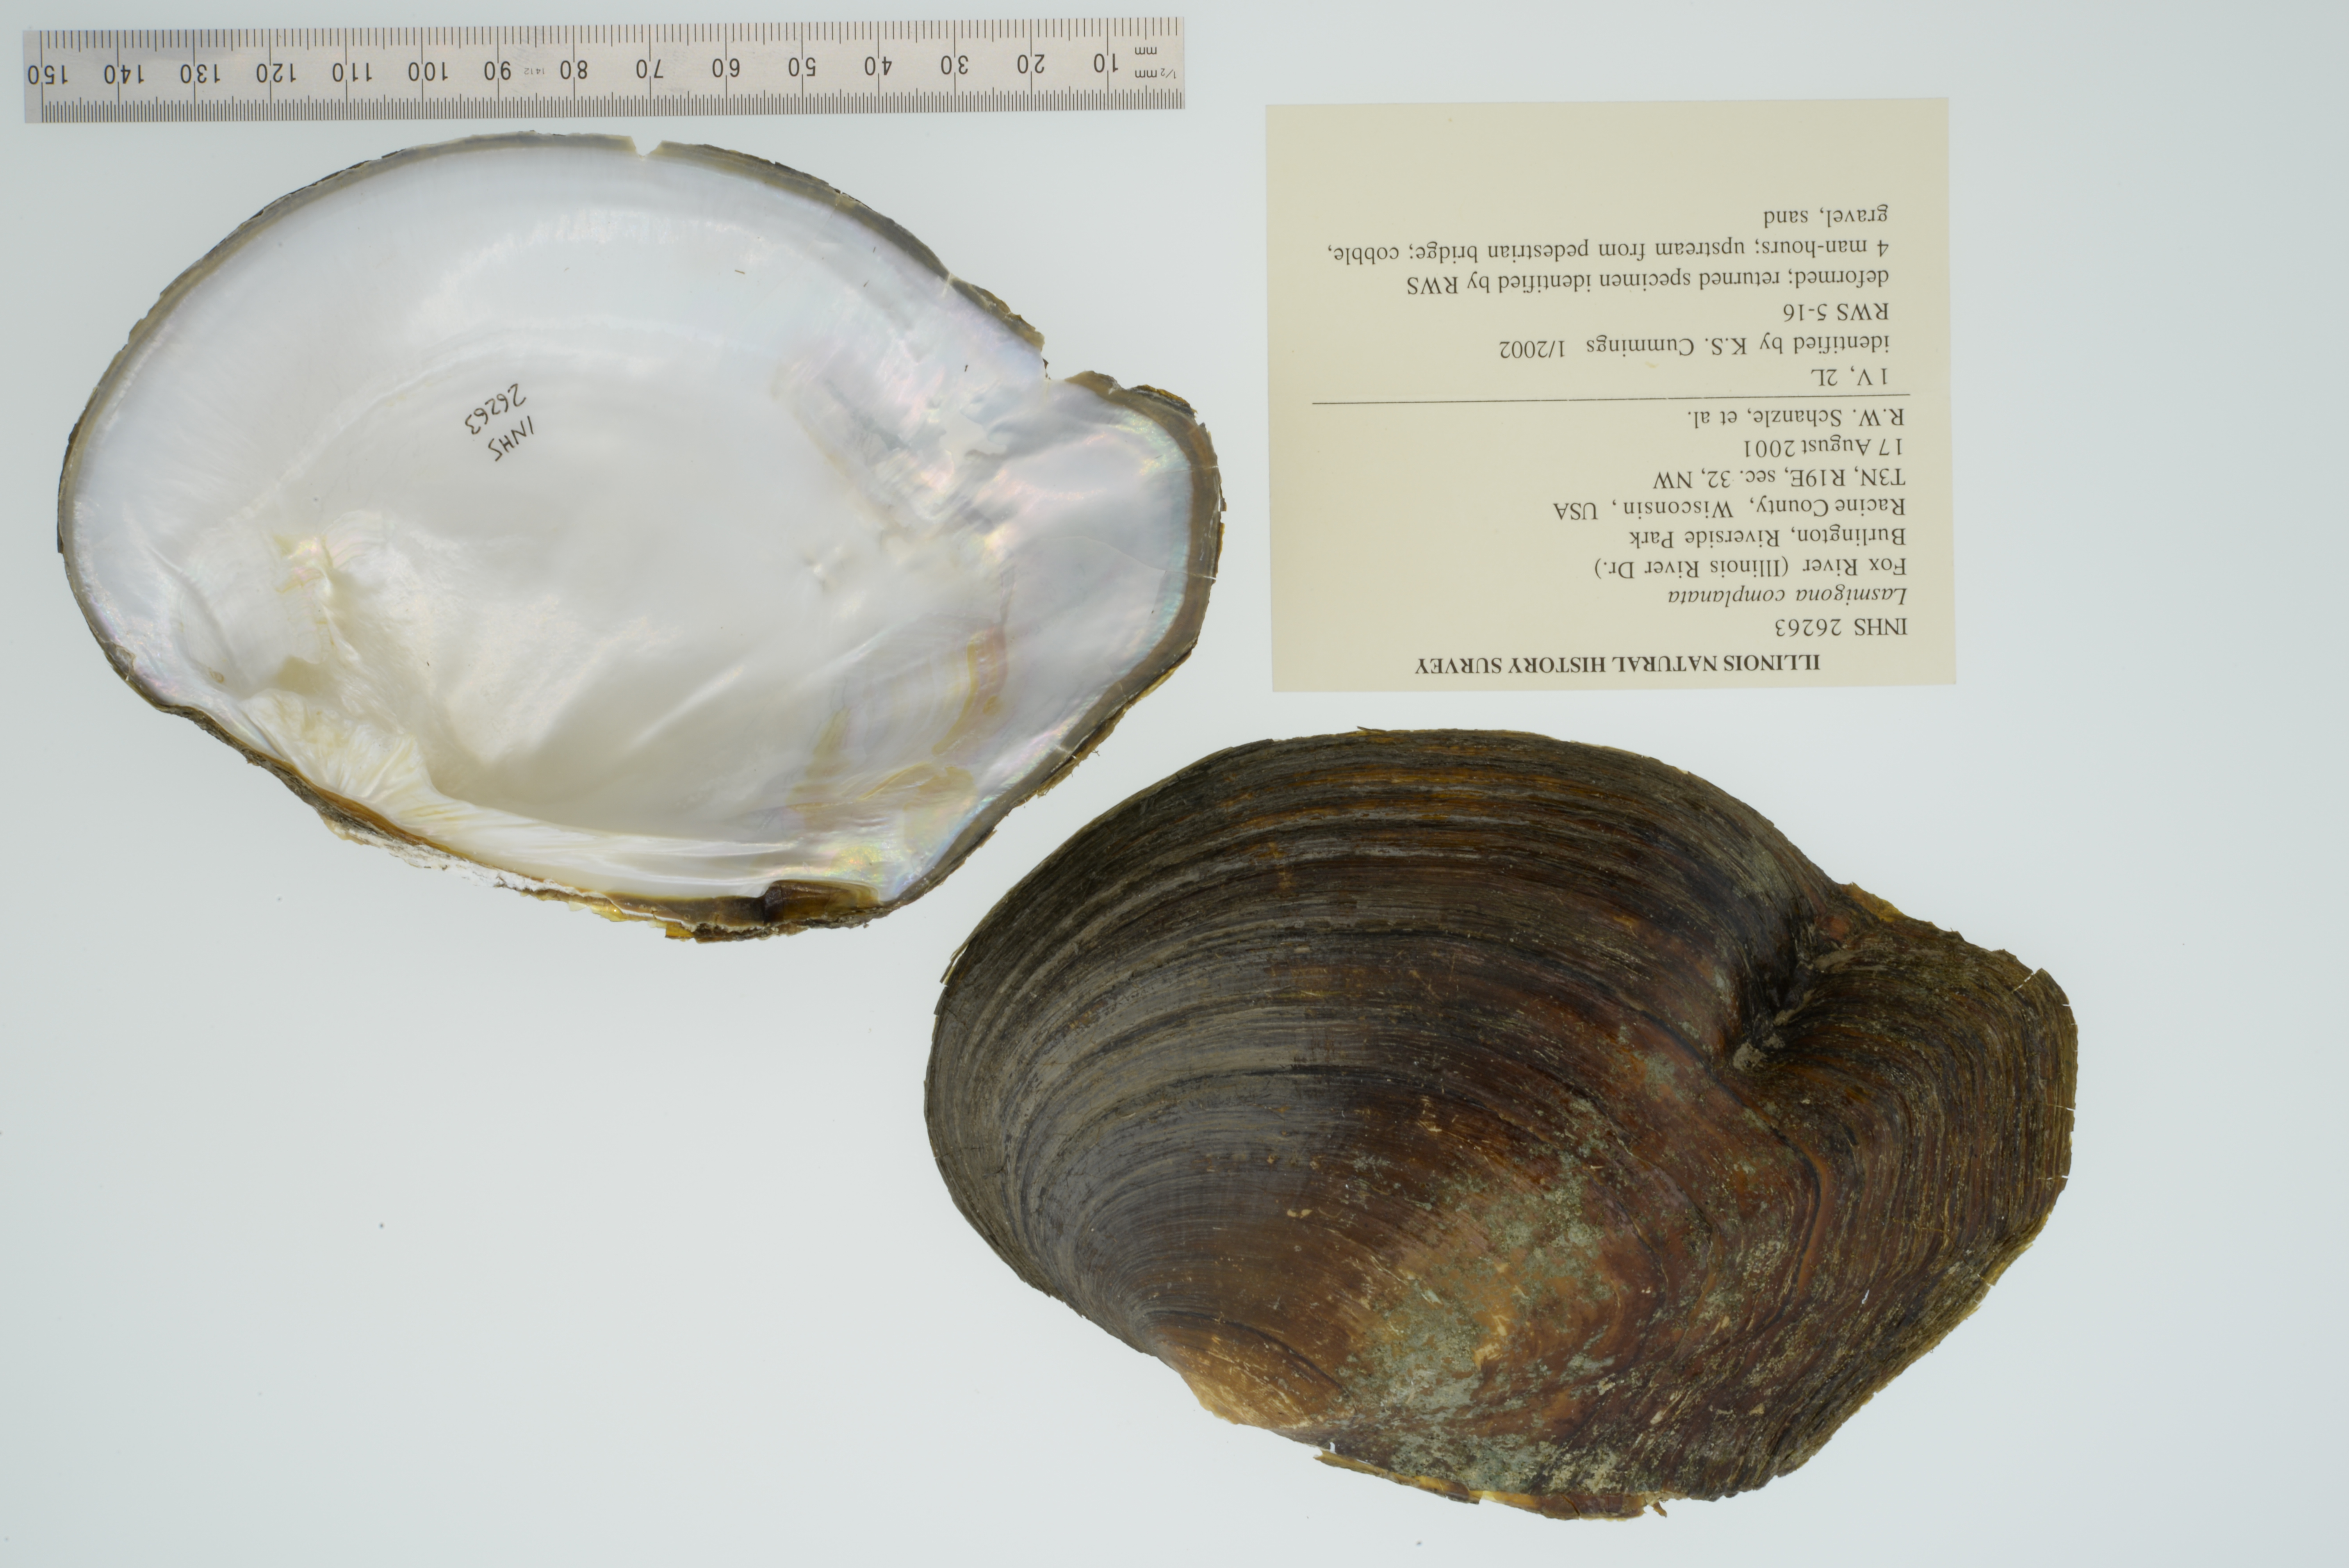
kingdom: Animalia
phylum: Mollusca
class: Bivalvia
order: Unionida
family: Unionidae
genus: Lasmigona
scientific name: Lasmigona complanata
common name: White heelsplitter
